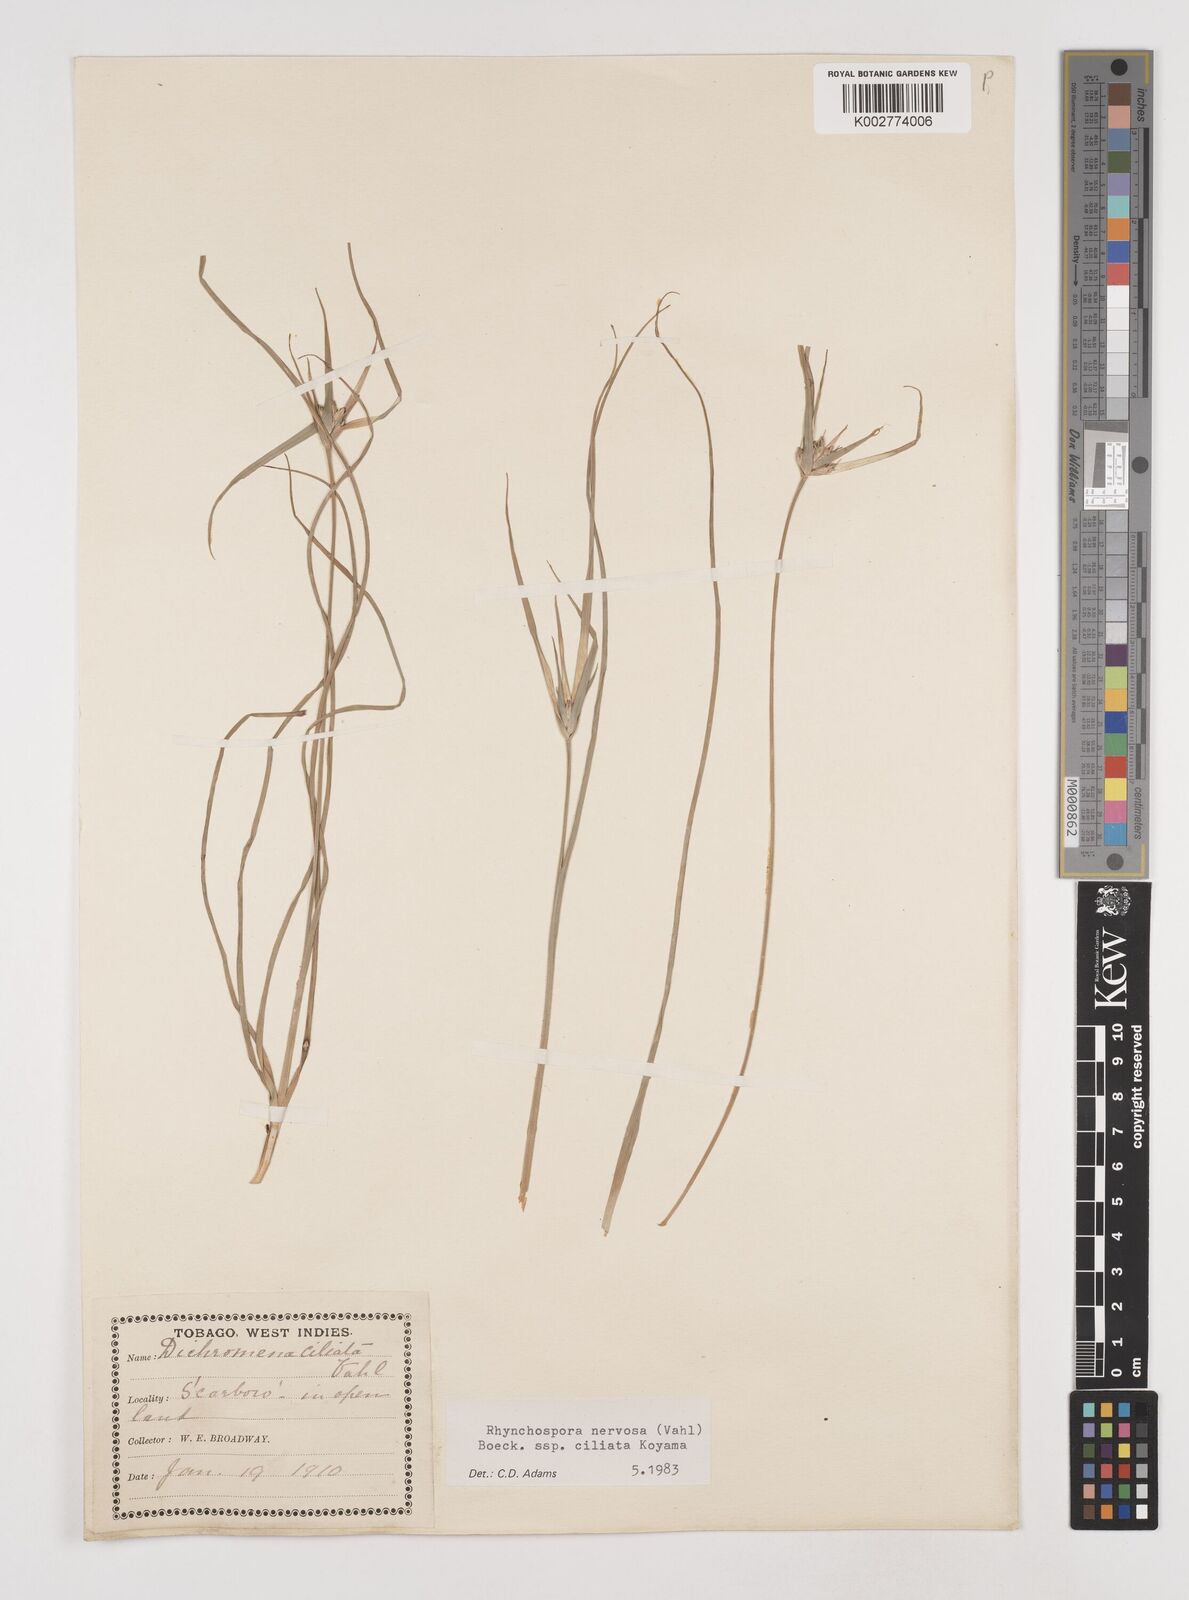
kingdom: Plantae
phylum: Tracheophyta
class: Liliopsida
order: Poales
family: Cyperaceae
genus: Rhynchospora
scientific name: Rhynchospora pura
